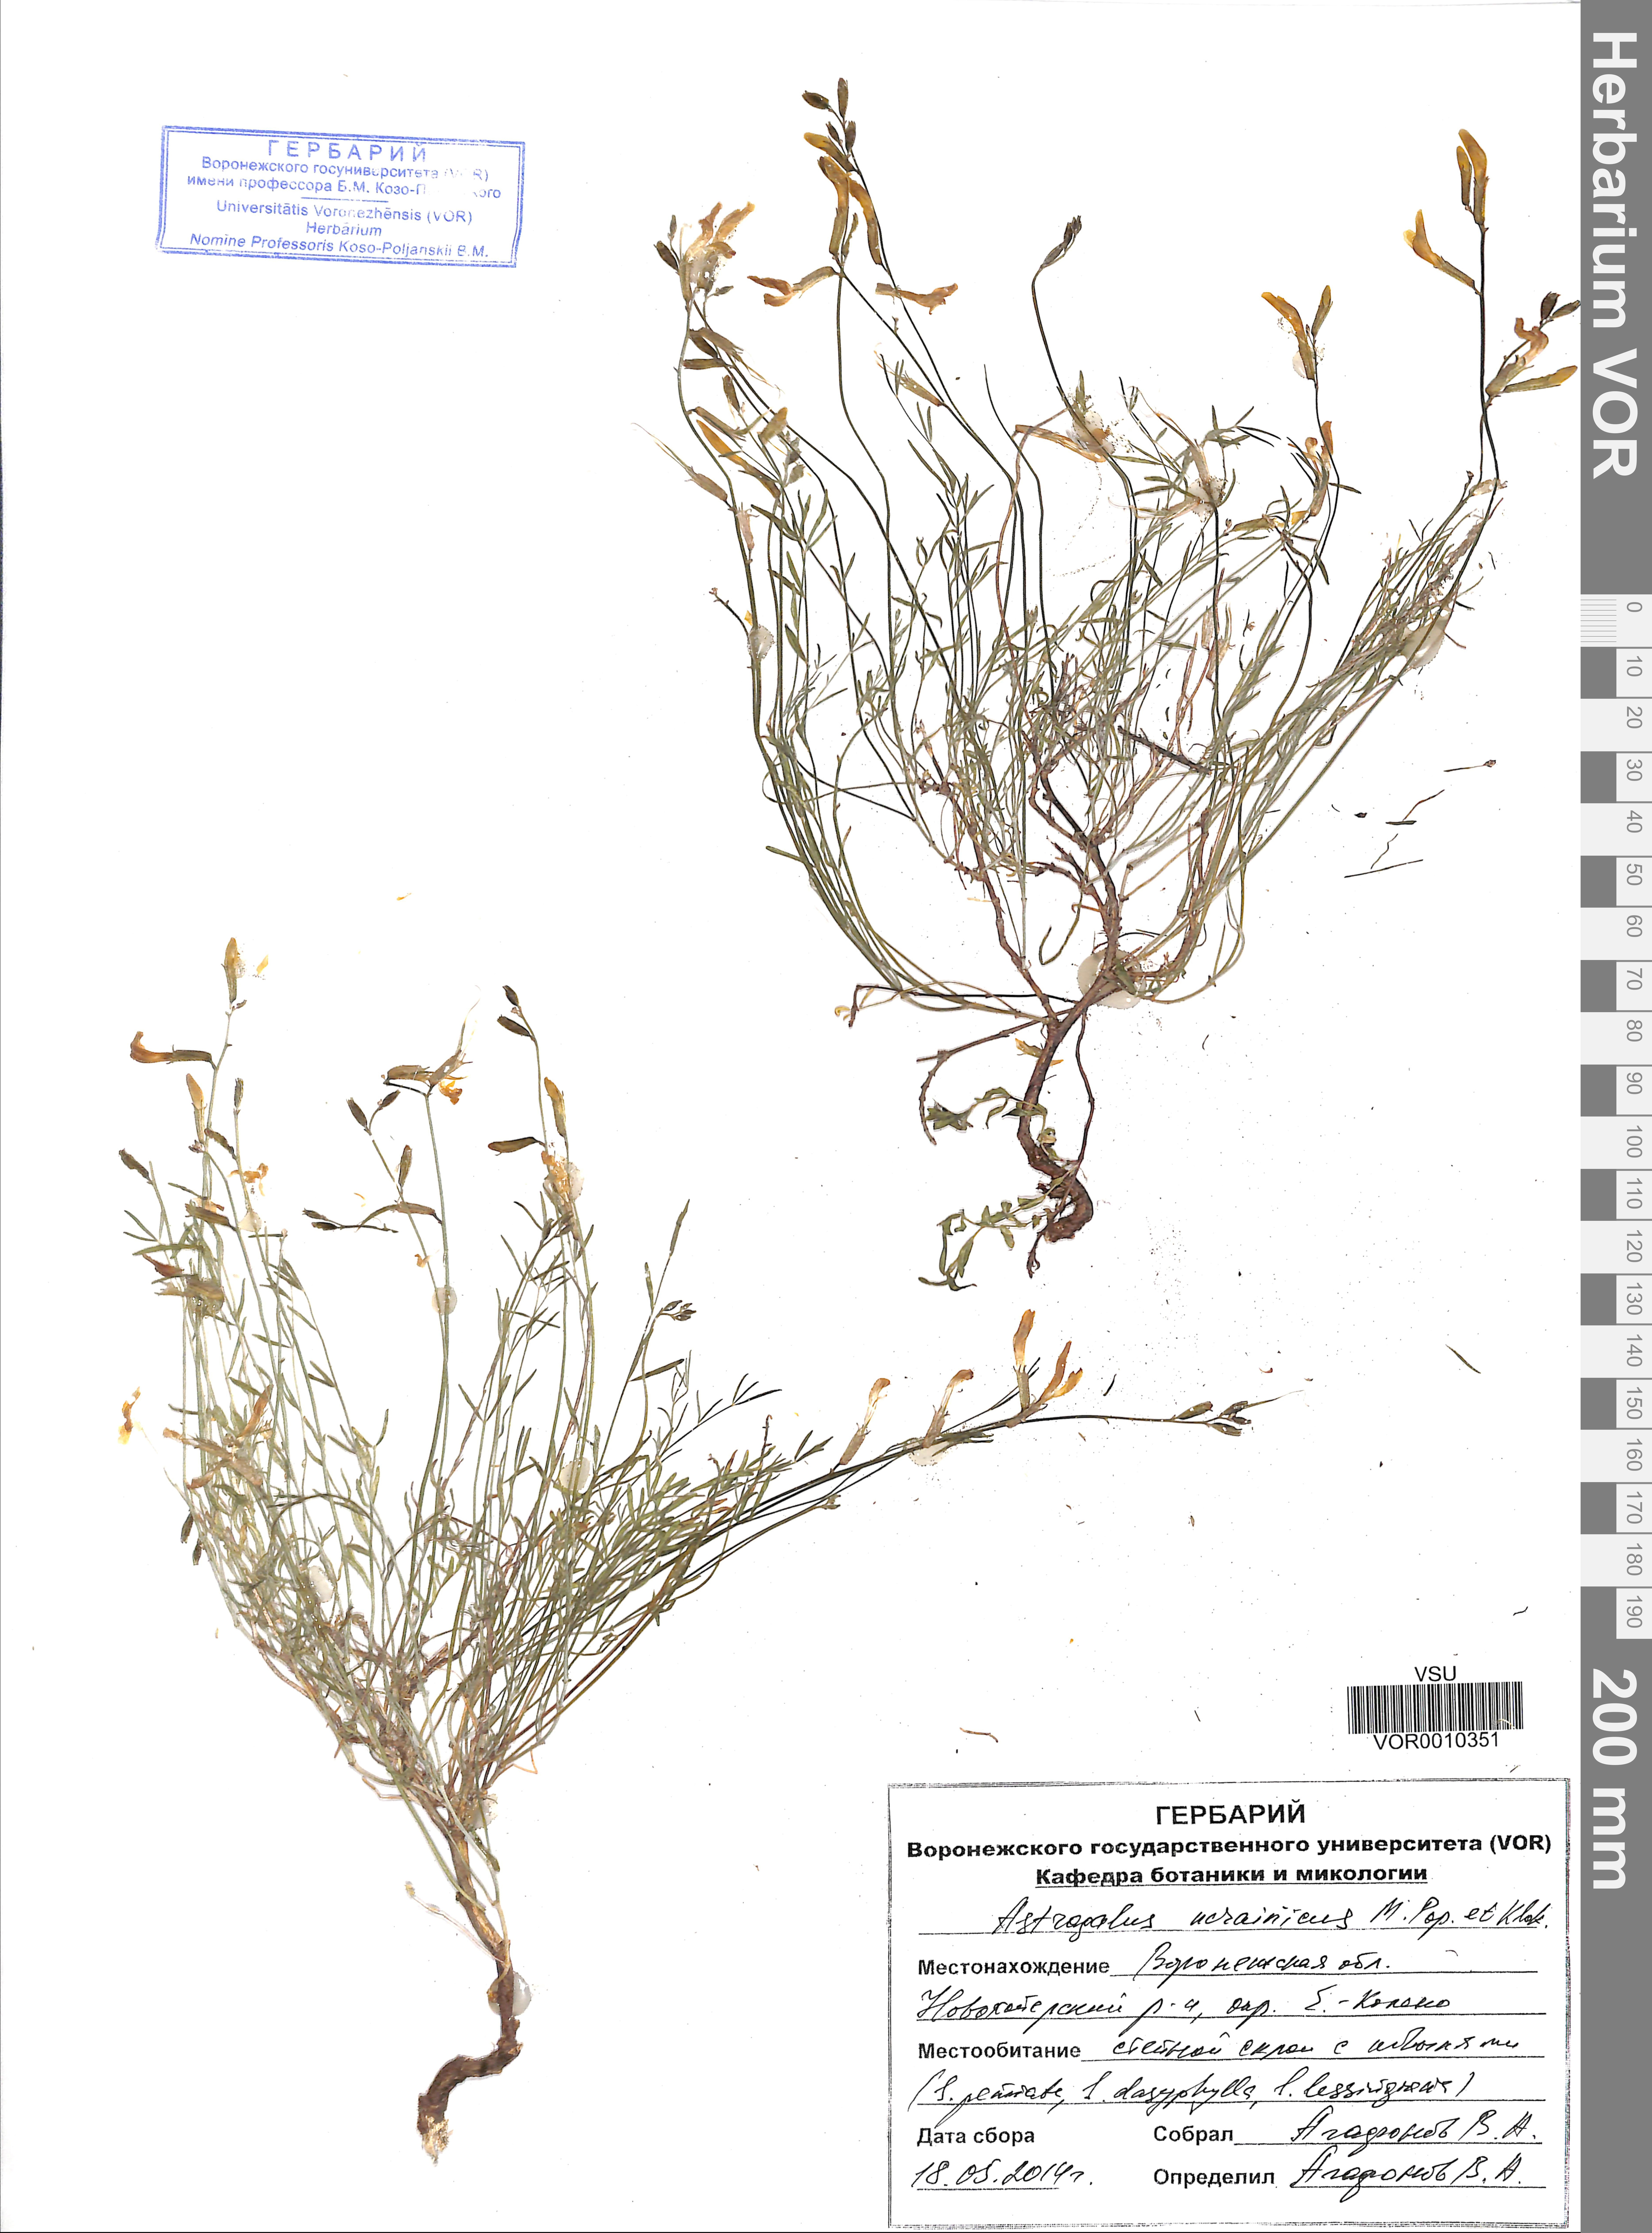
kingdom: Plantae
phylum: Tracheophyta
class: Magnoliopsida
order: Fabales
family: Fabaceae
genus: Astragalus
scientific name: Astragalus ucrainicus
